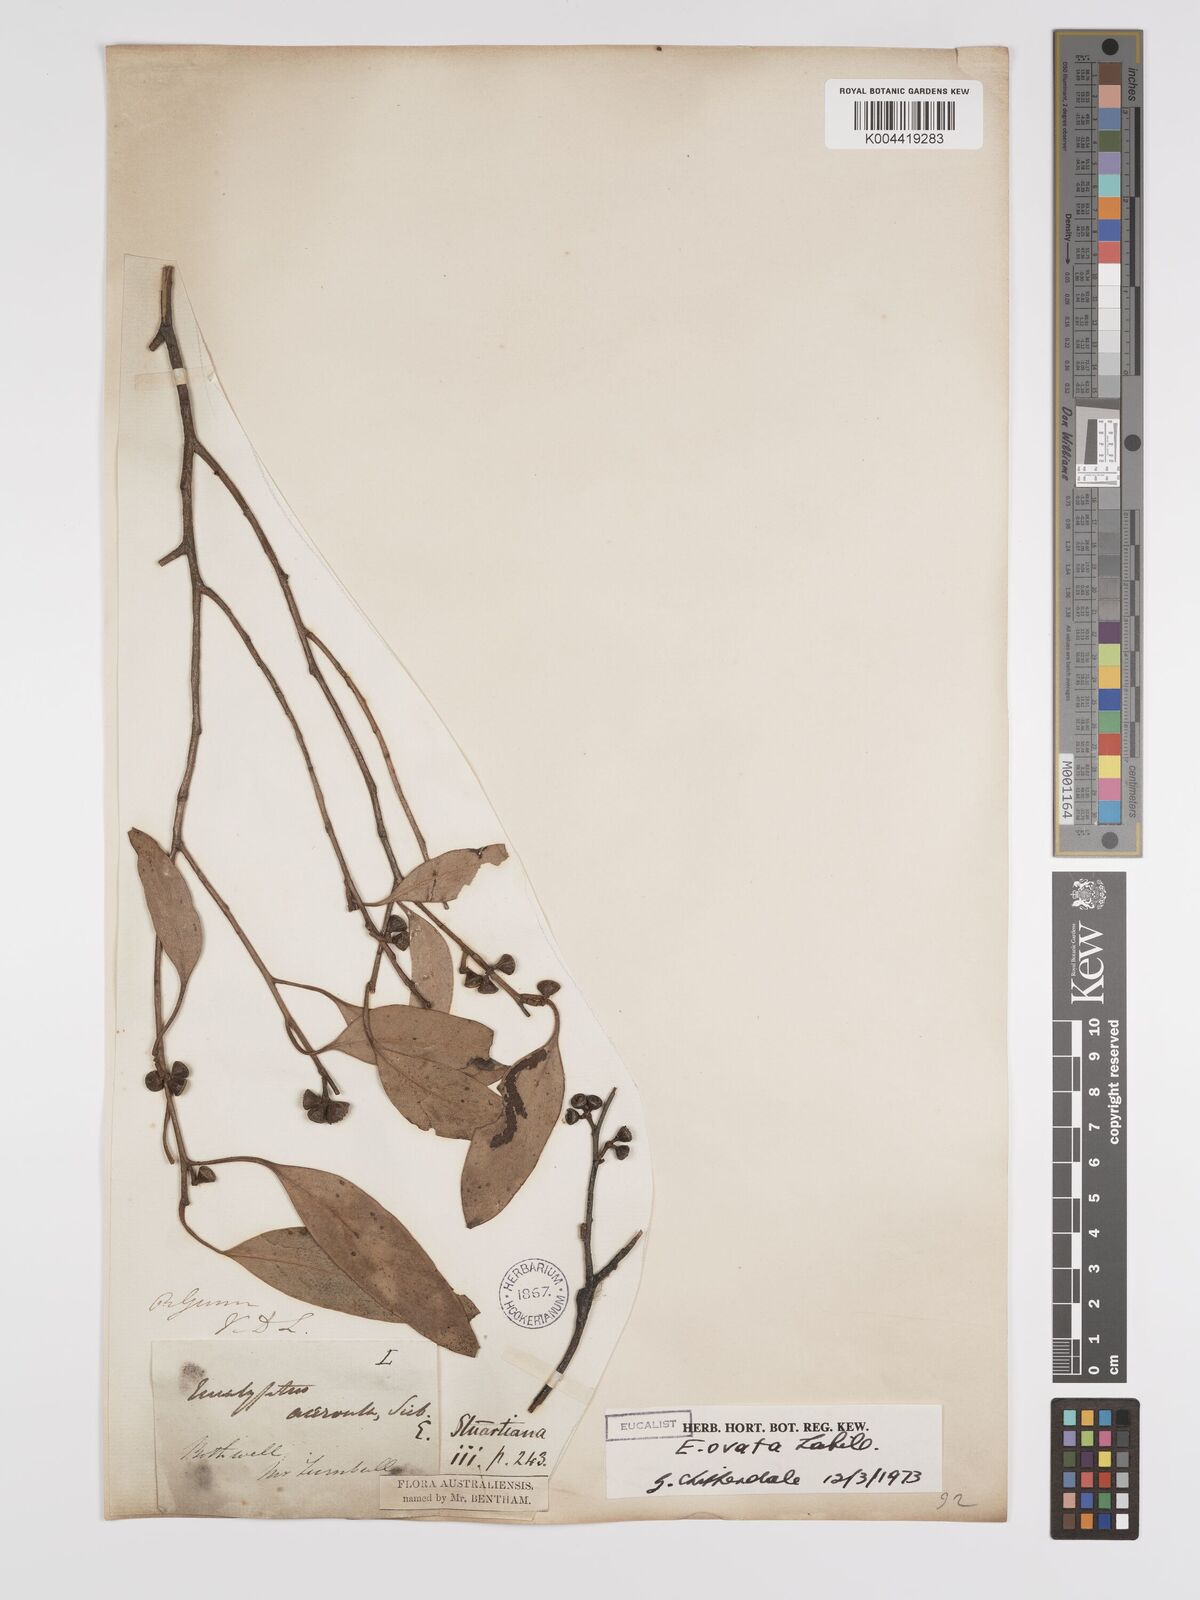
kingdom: Plantae
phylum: Tracheophyta
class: Magnoliopsida
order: Myrtales
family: Myrtaceae
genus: Eucalyptus
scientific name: Eucalyptus ovata
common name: Black-gum
